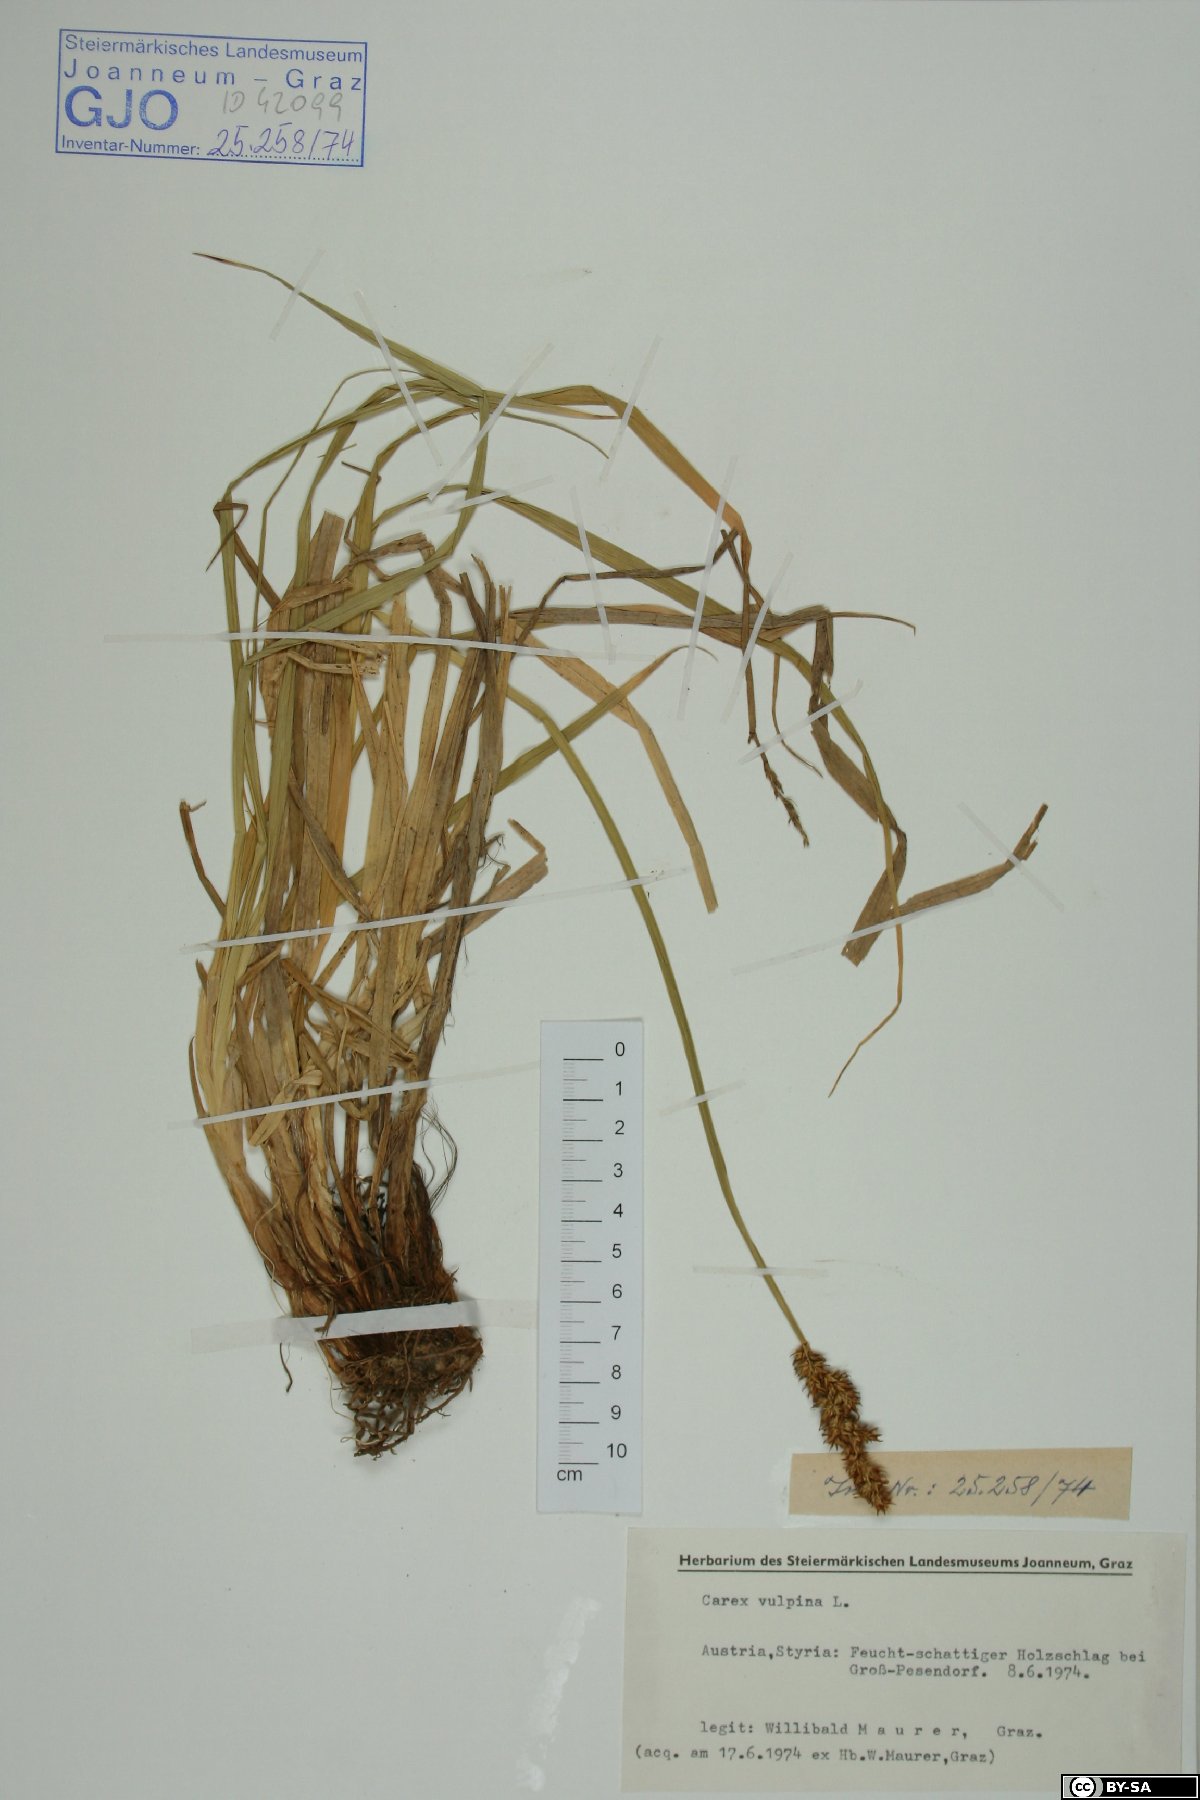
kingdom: Plantae
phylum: Tracheophyta
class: Liliopsida
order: Poales
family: Cyperaceae
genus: Carex
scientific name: Carex vulpina
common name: True fox-sedge
